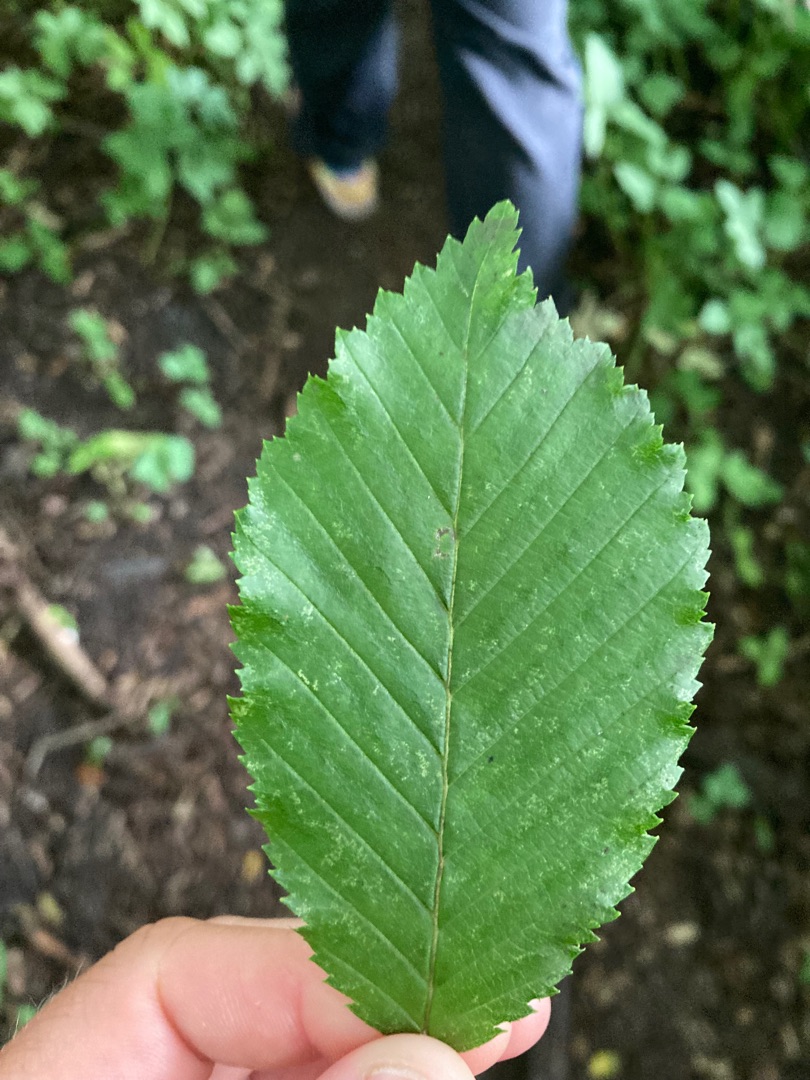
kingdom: Plantae
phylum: Tracheophyta
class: Magnoliopsida
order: Fagales
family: Betulaceae
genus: Carpinus
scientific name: Carpinus betulus
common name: Avnbøg
